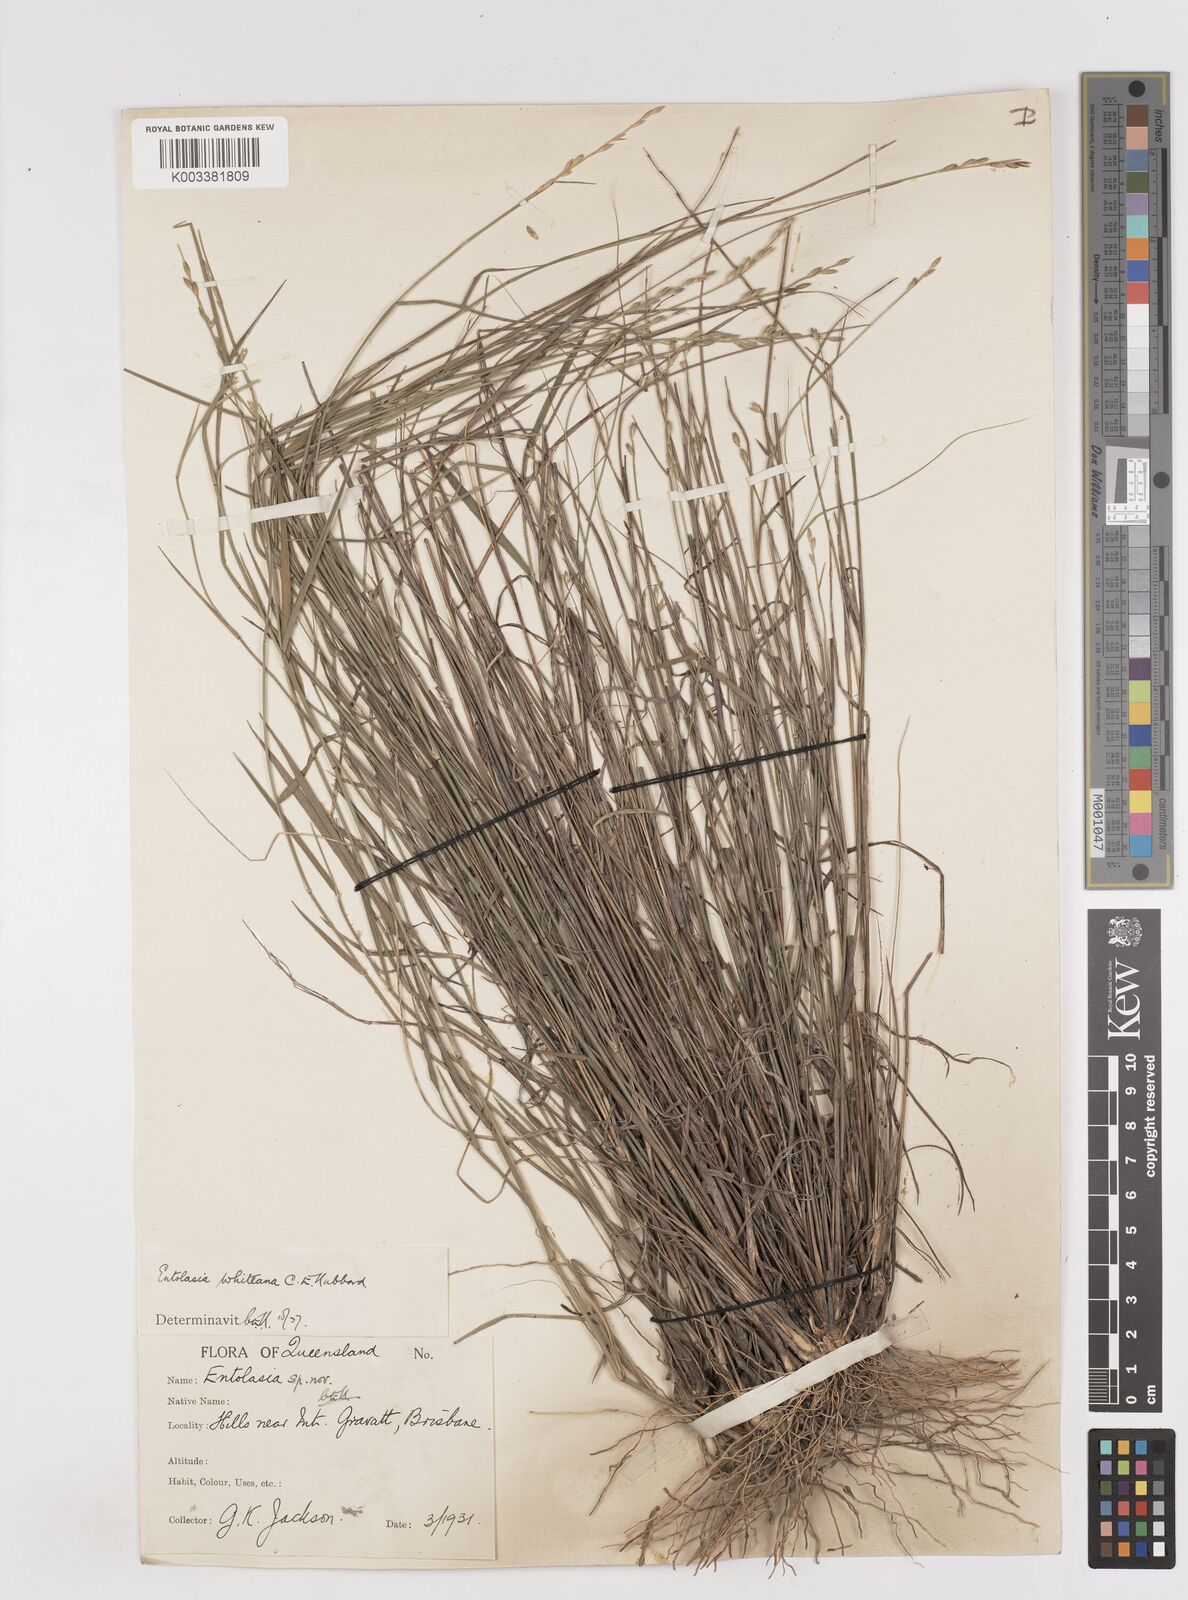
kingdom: Plantae
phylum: Tracheophyta
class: Liliopsida
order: Poales
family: Poaceae
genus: Entolasia
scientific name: Entolasia whiteana
